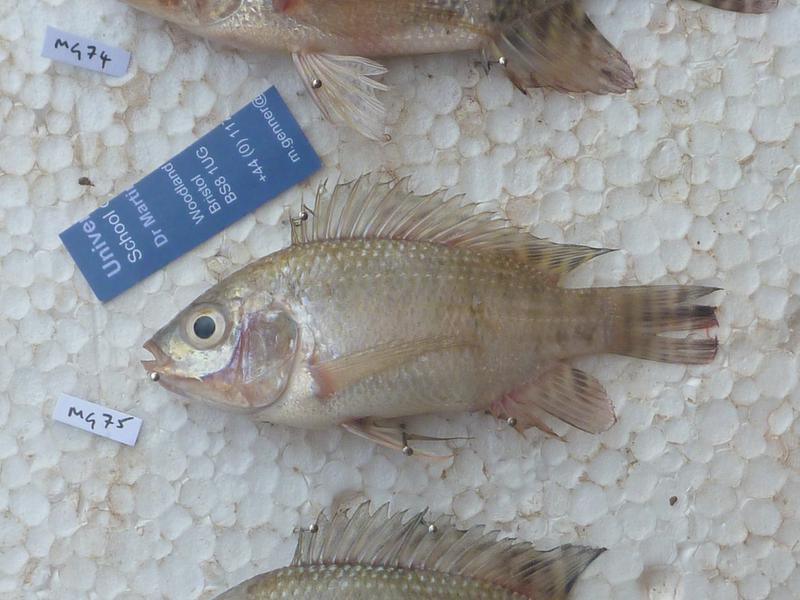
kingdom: Animalia
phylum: Chordata
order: Perciformes
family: Cichlidae
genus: Oreochromis
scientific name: Oreochromis niloticus
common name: Nile tilapia
